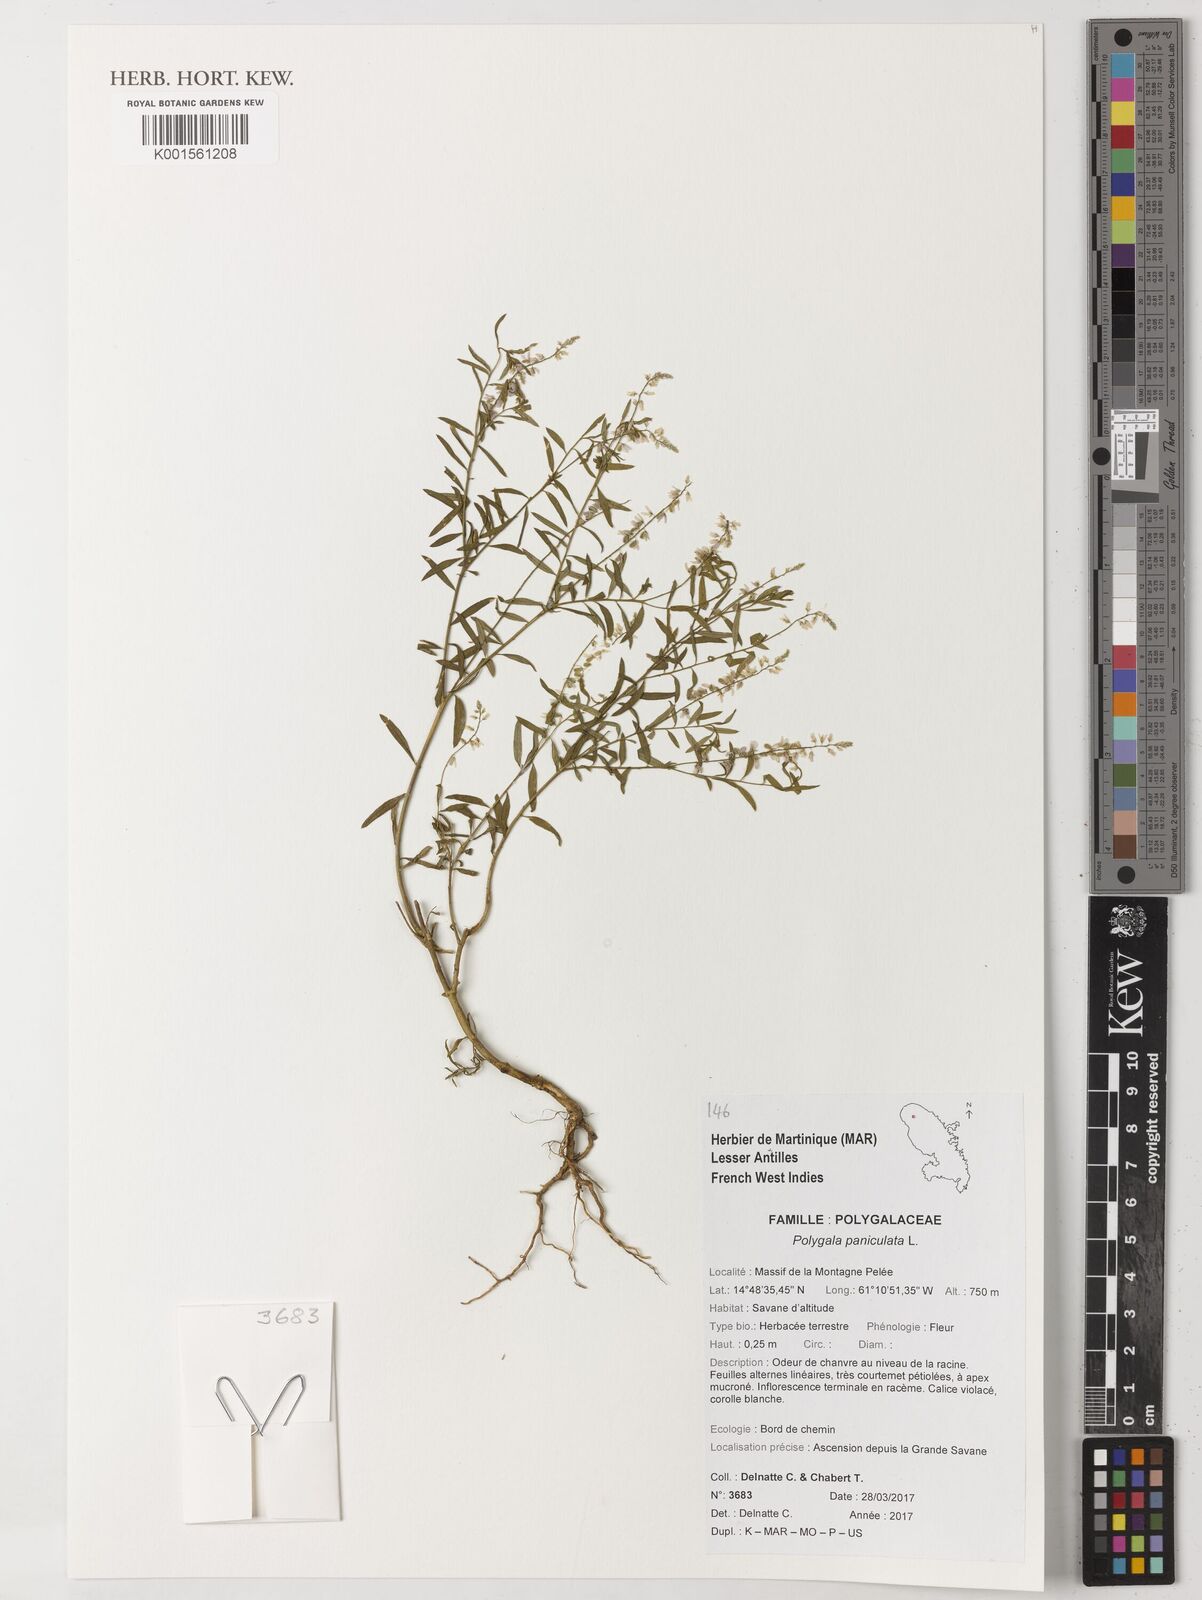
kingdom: Plantae
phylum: Tracheophyta
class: Magnoliopsida
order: Fabales
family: Polygalaceae
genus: Polygala
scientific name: Polygala paniculata
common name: Orosne
